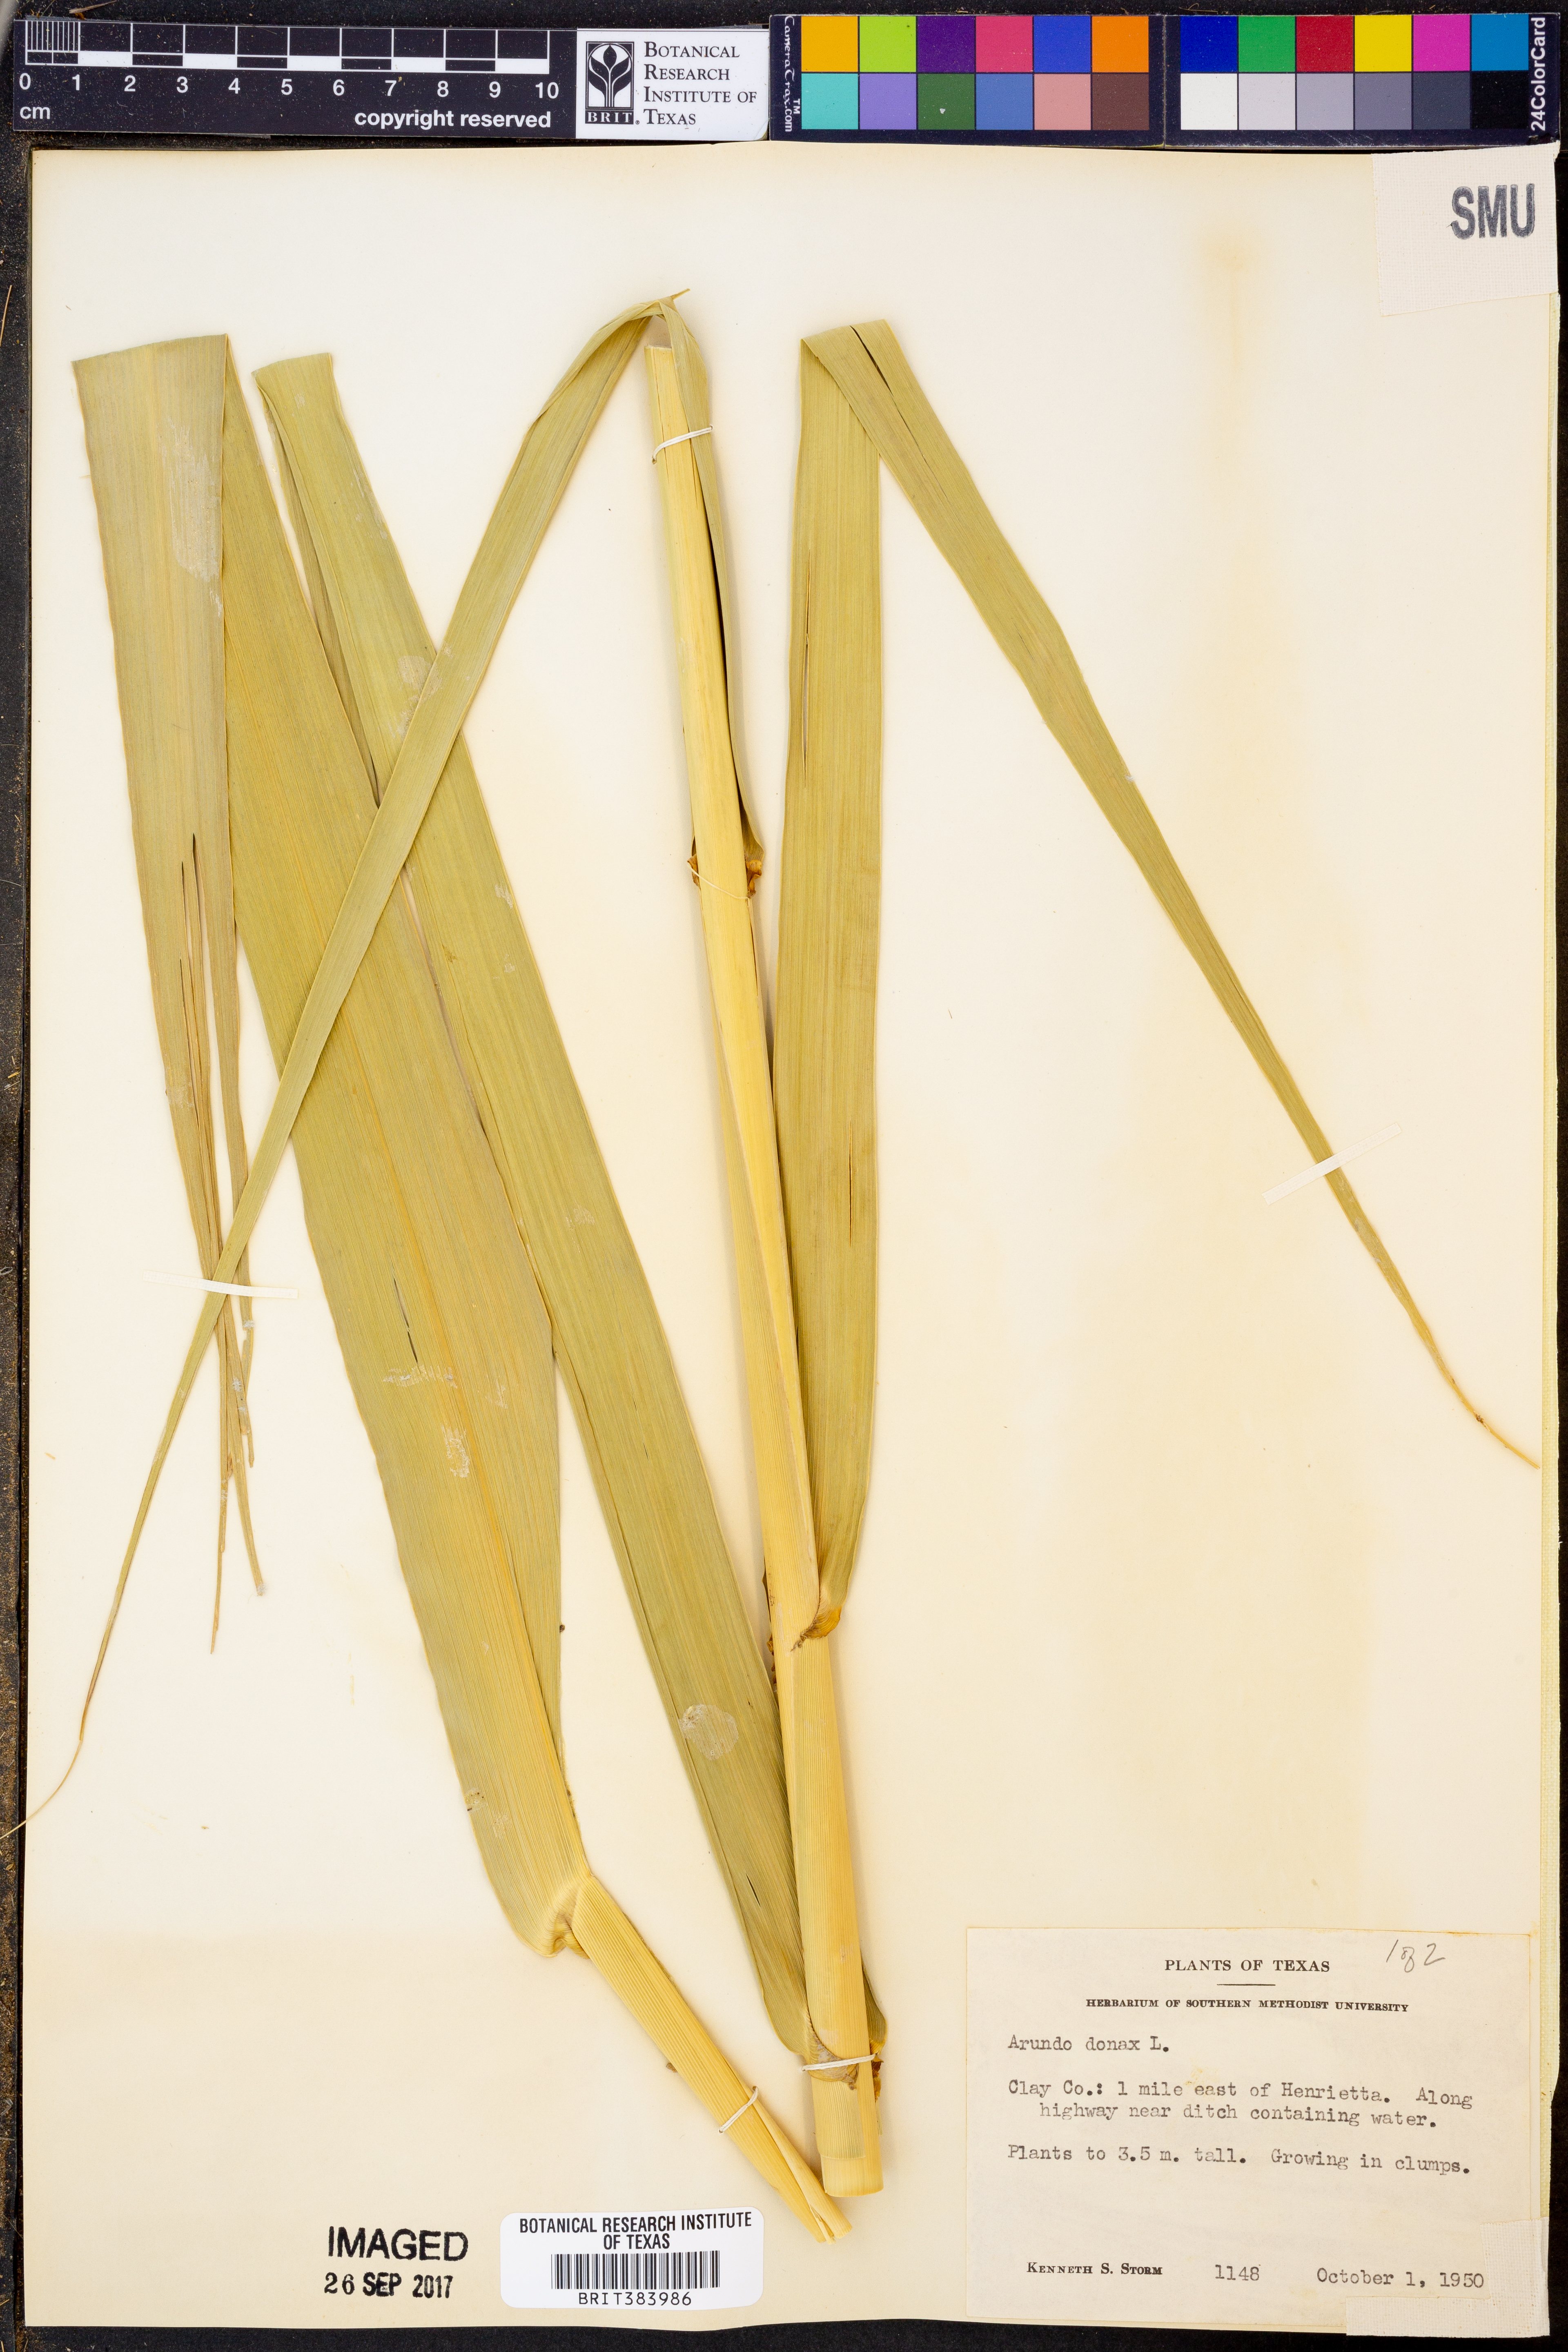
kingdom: Plantae
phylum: Tracheophyta
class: Liliopsida
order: Poales
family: Poaceae
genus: Arundo
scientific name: Arundo donax
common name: Giant reed
